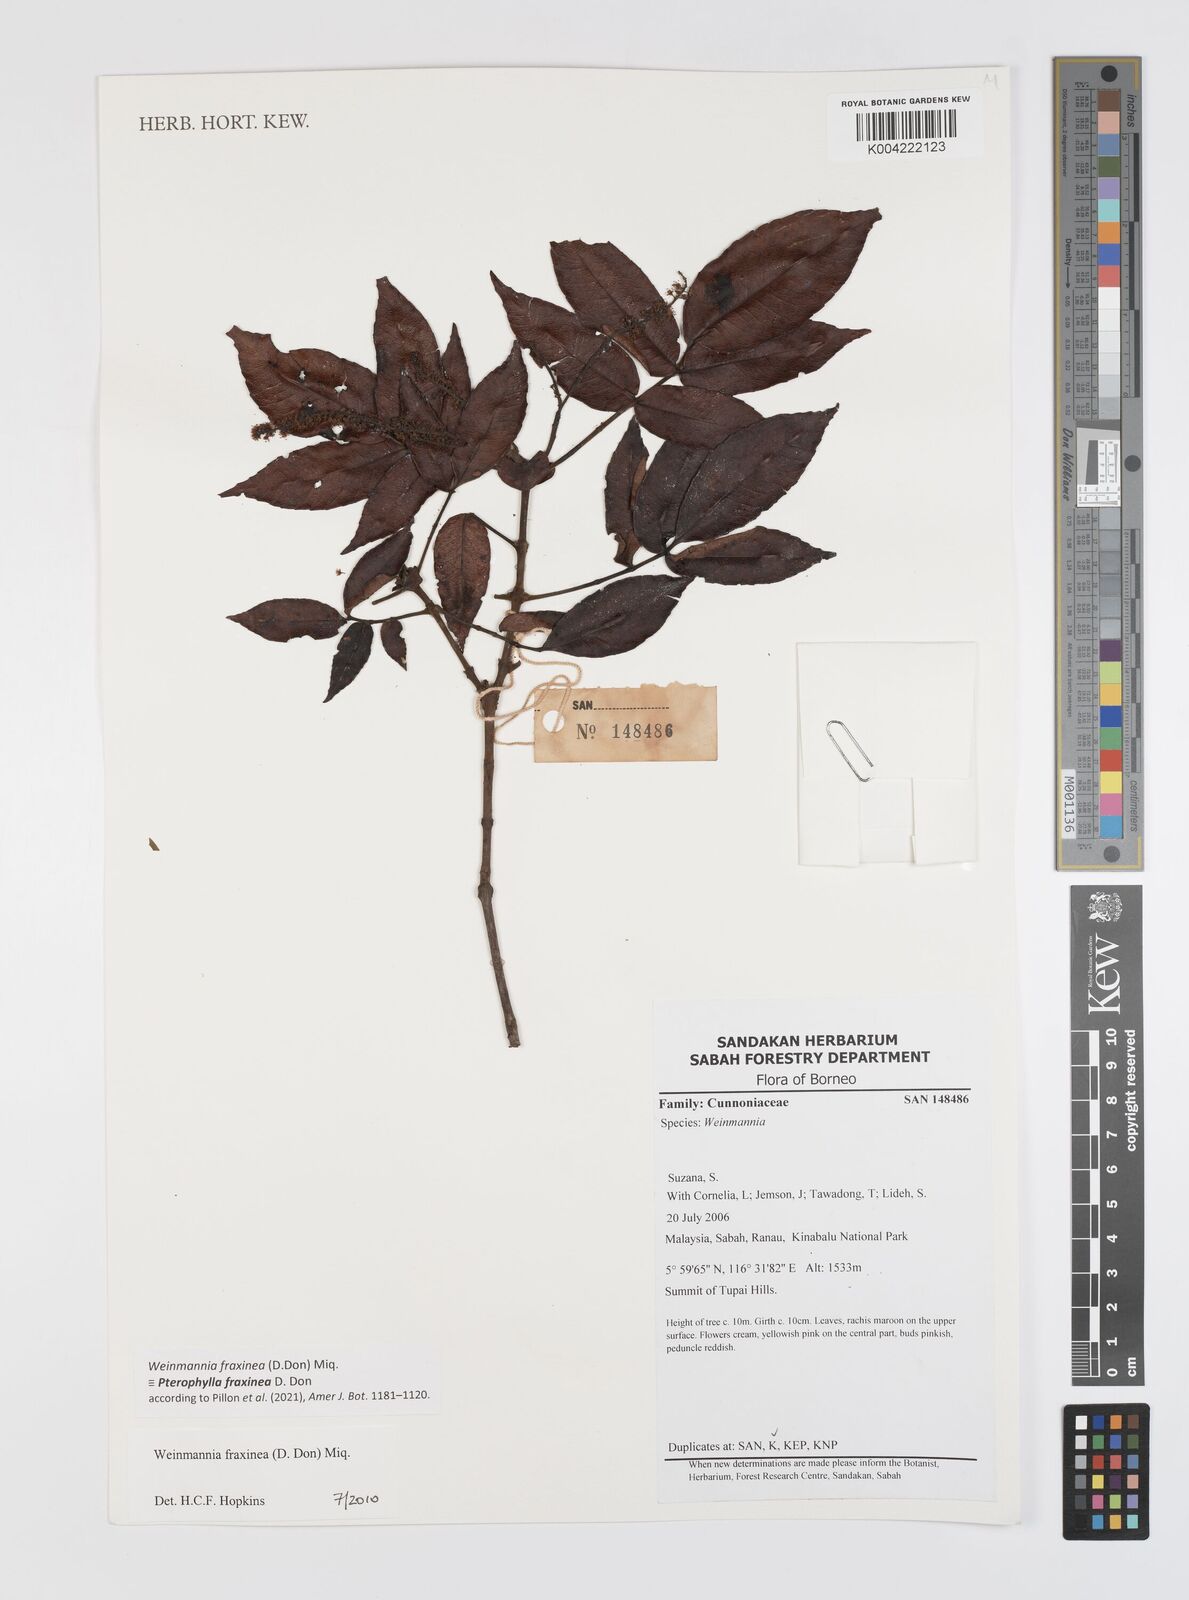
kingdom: Plantae
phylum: Tracheophyta
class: Magnoliopsida
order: Oxalidales
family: Cunoniaceae
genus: Pterophylla
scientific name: Pterophylla fraxinea
